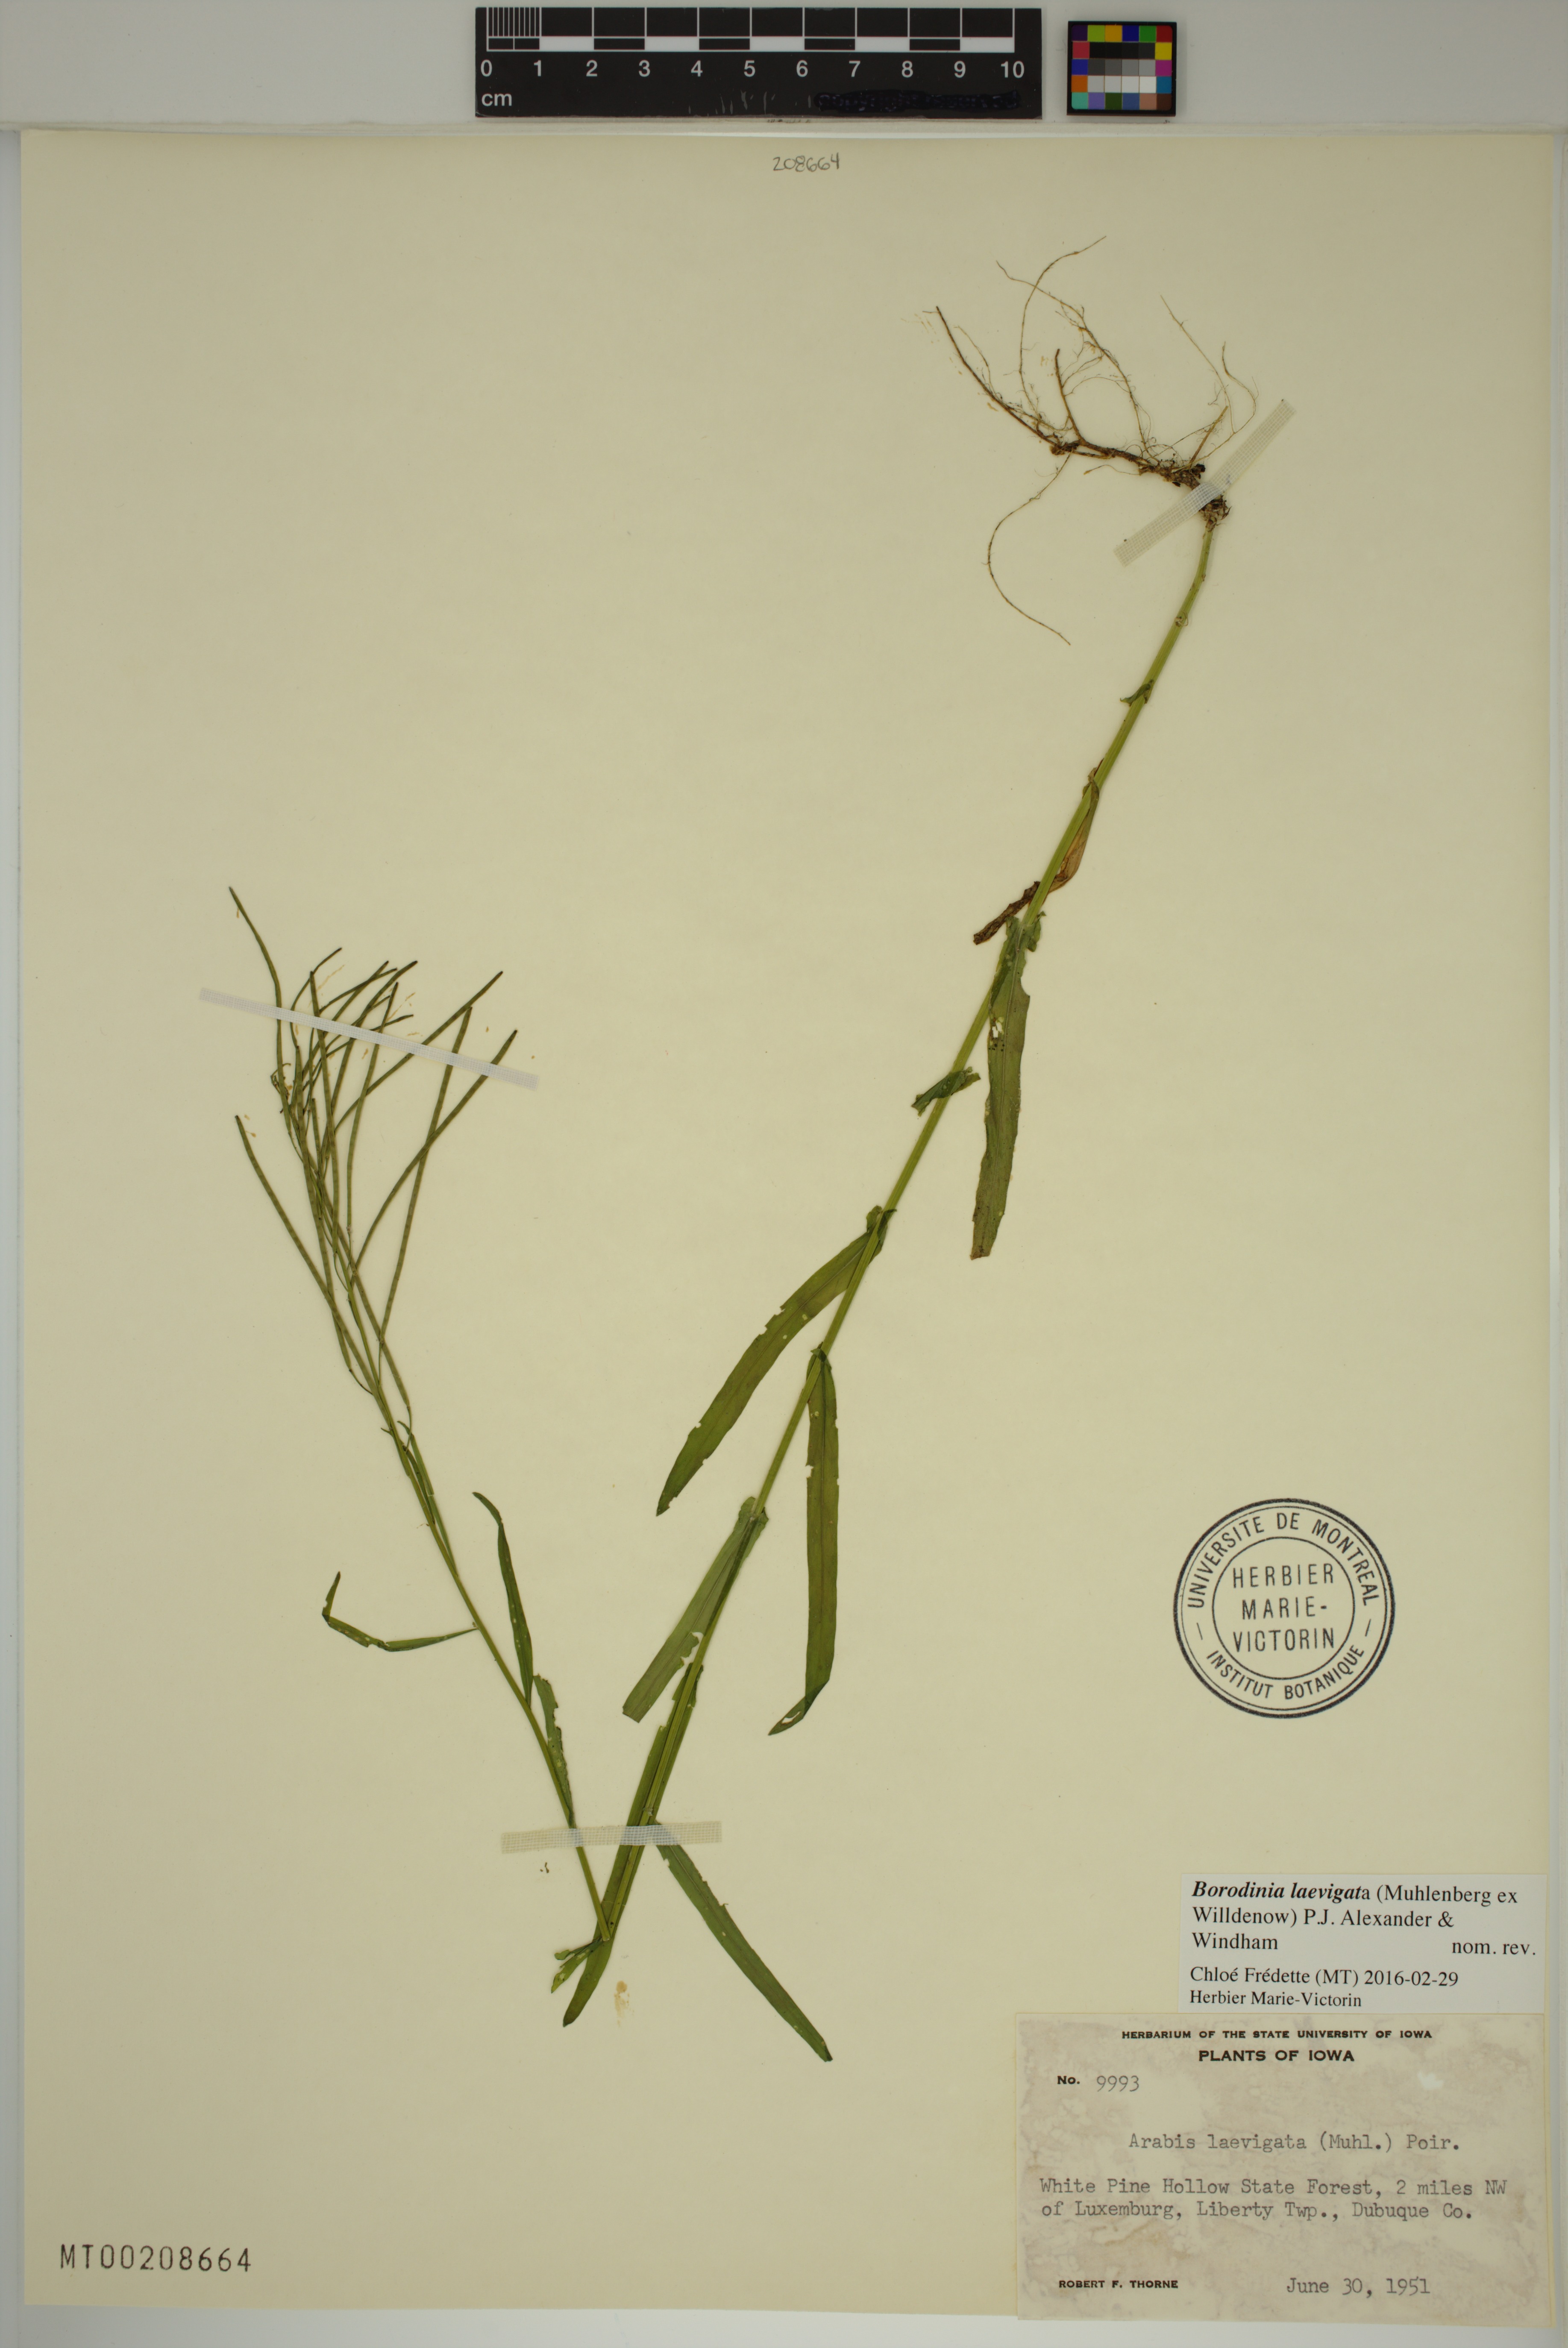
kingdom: Plantae
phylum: Tracheophyta
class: Magnoliopsida
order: Brassicales
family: Brassicaceae
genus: Borodinia
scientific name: Borodinia laevigata
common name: Smooth rockcress
